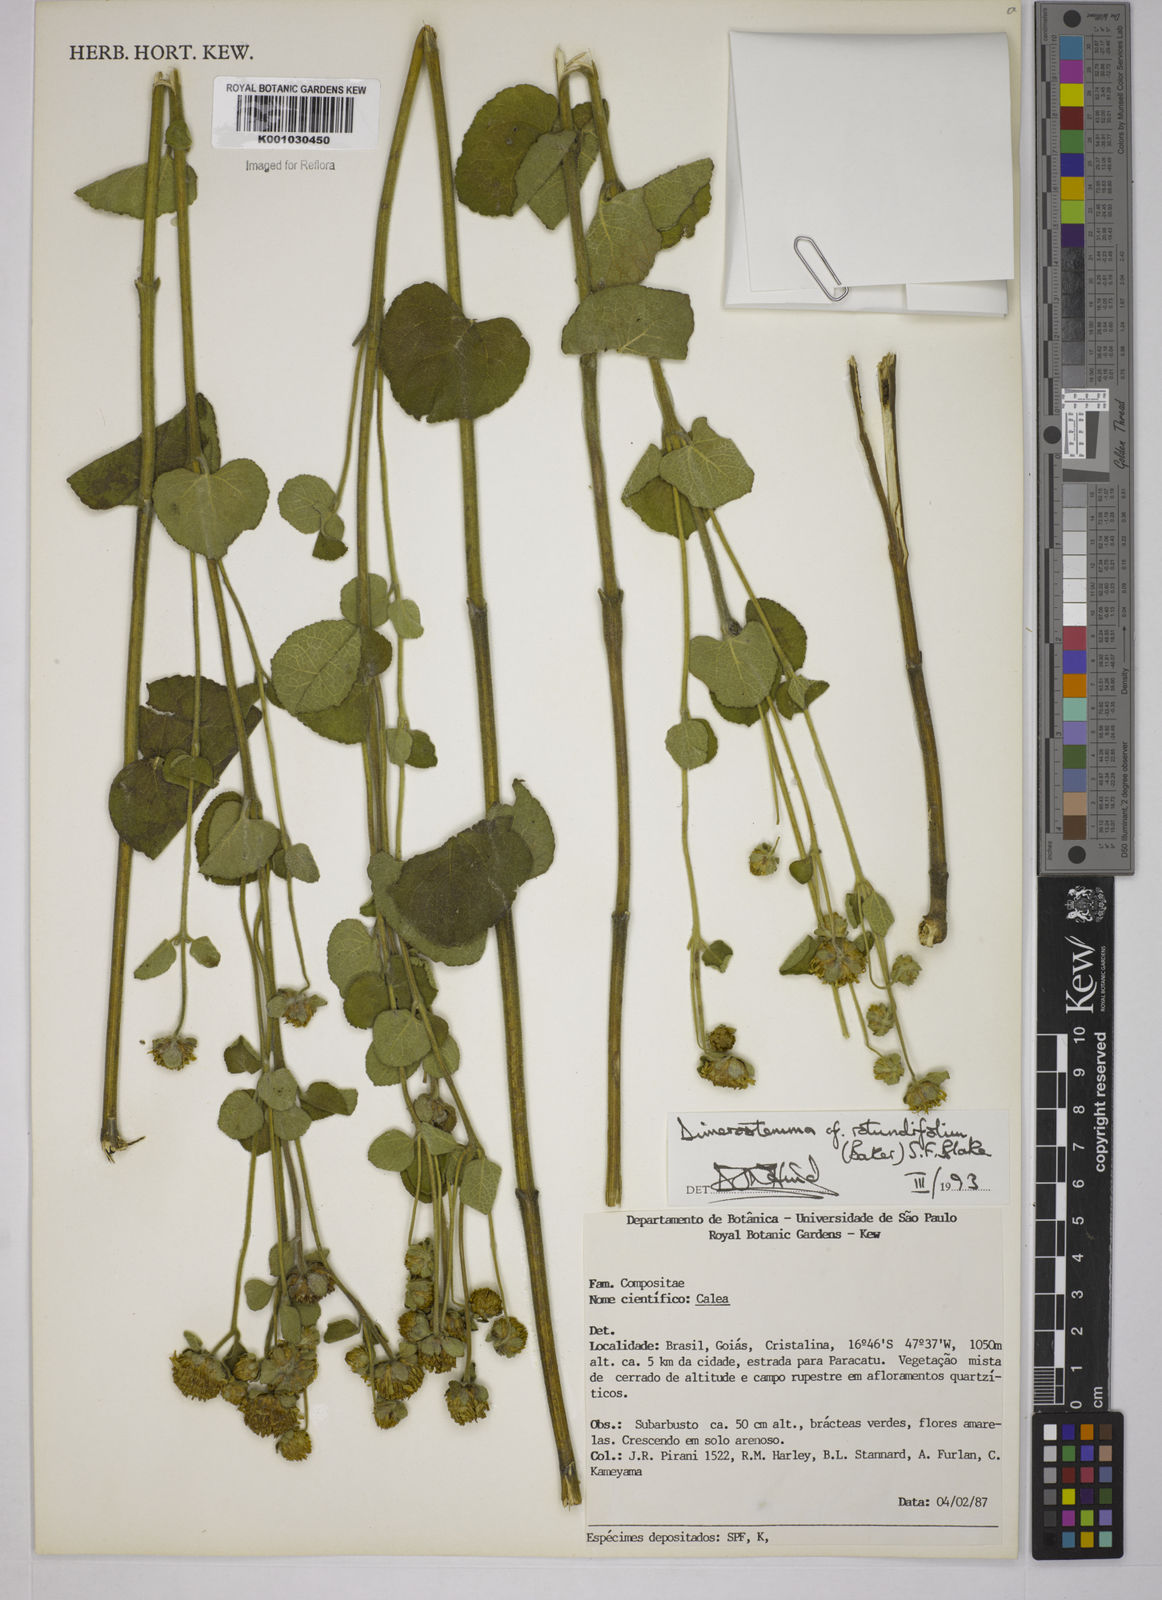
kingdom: Plantae
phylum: Tracheophyta
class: Magnoliopsida
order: Asterales
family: Asteraceae
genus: Dimerostemma
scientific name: Dimerostemma brasilianum
